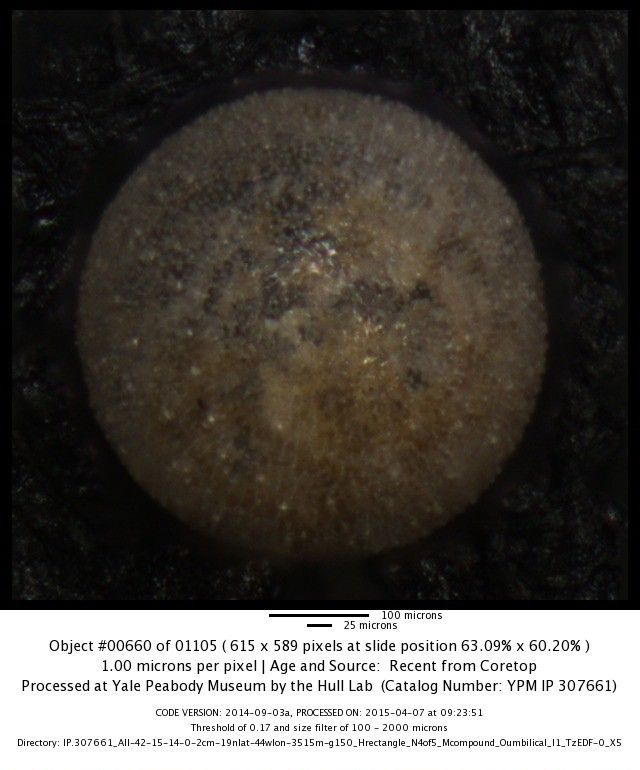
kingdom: Chromista
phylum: Foraminifera
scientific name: Foraminifera
